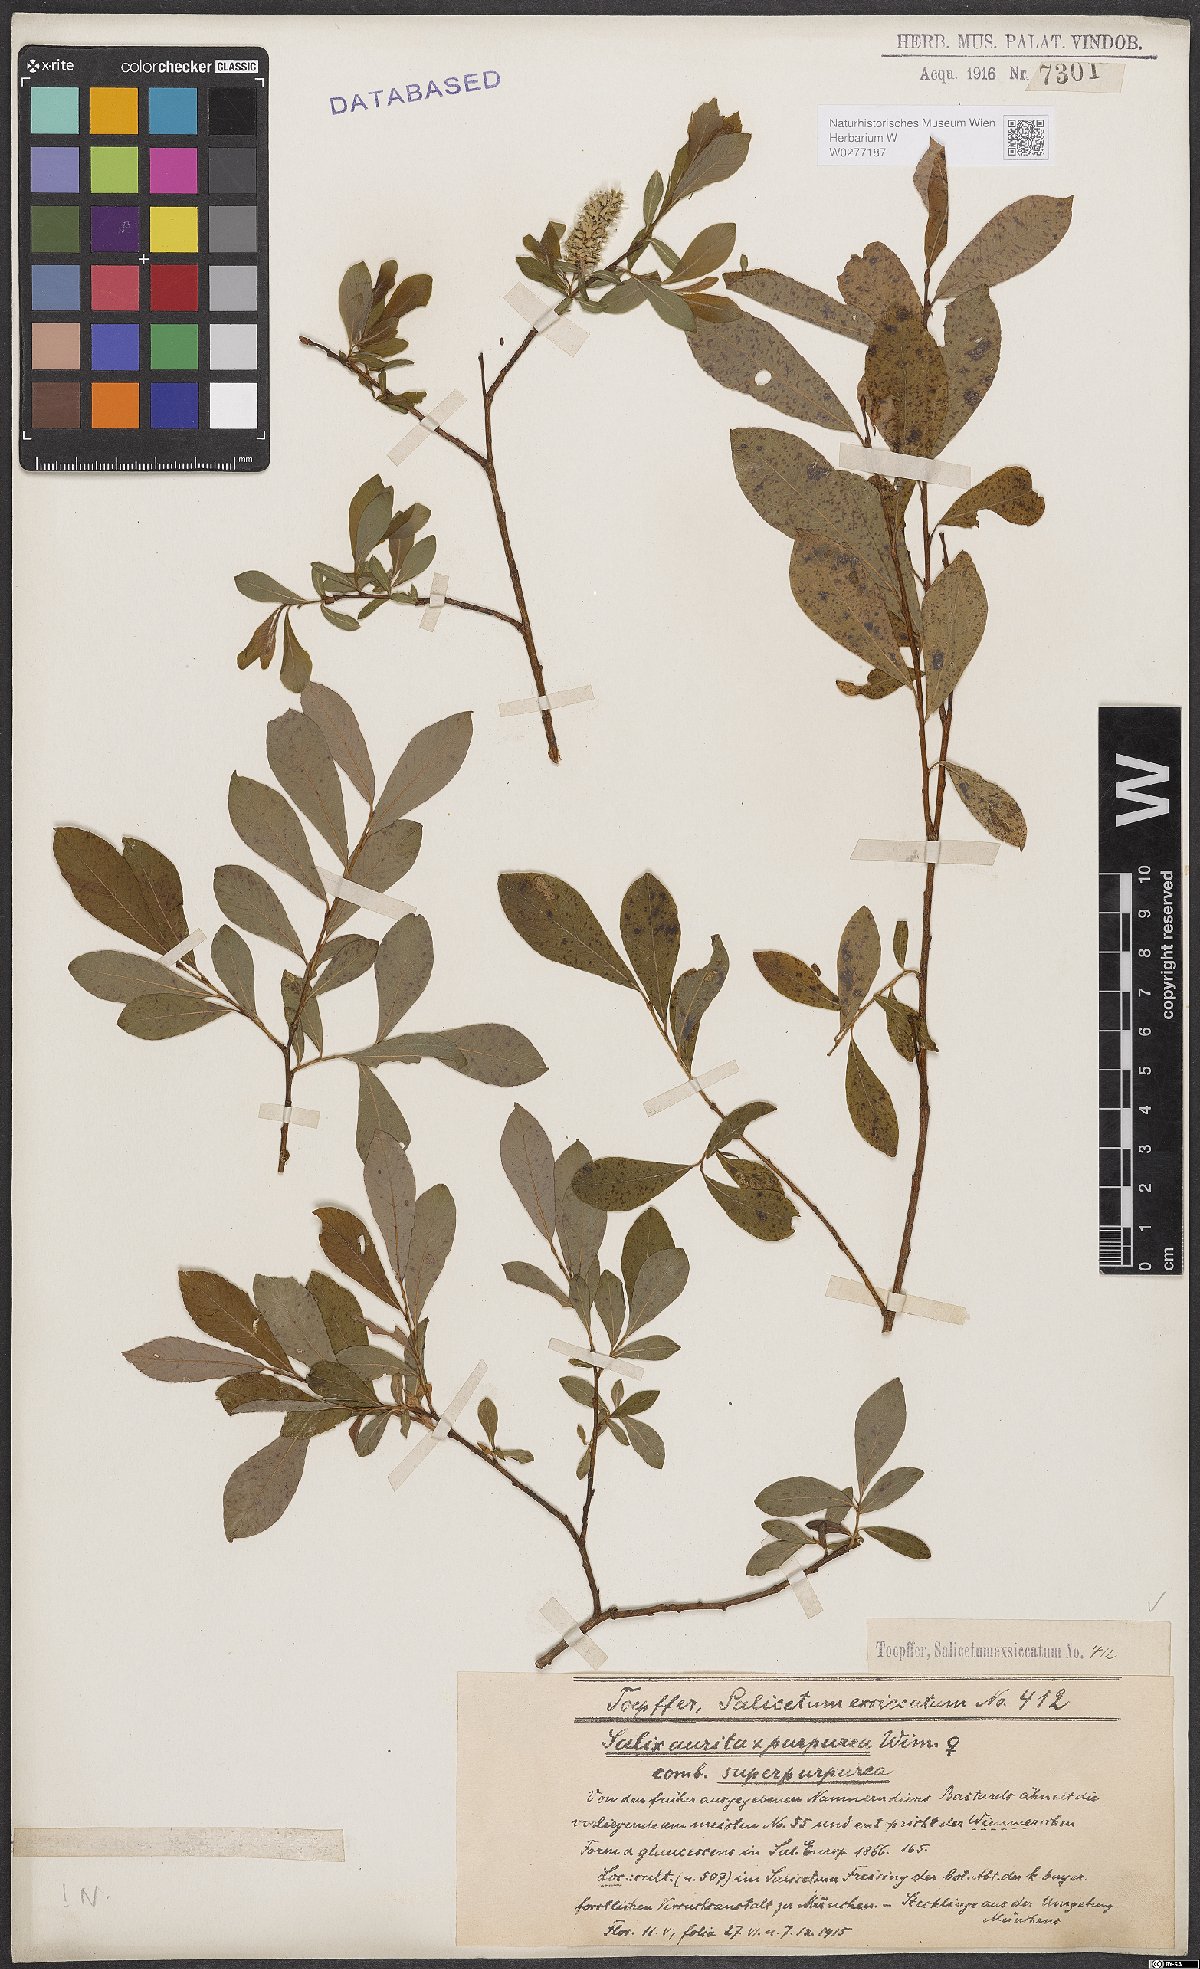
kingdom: Plantae
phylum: Tracheophyta
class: Magnoliopsida
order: Malpighiales
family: Salicaceae
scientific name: Salicaceae
